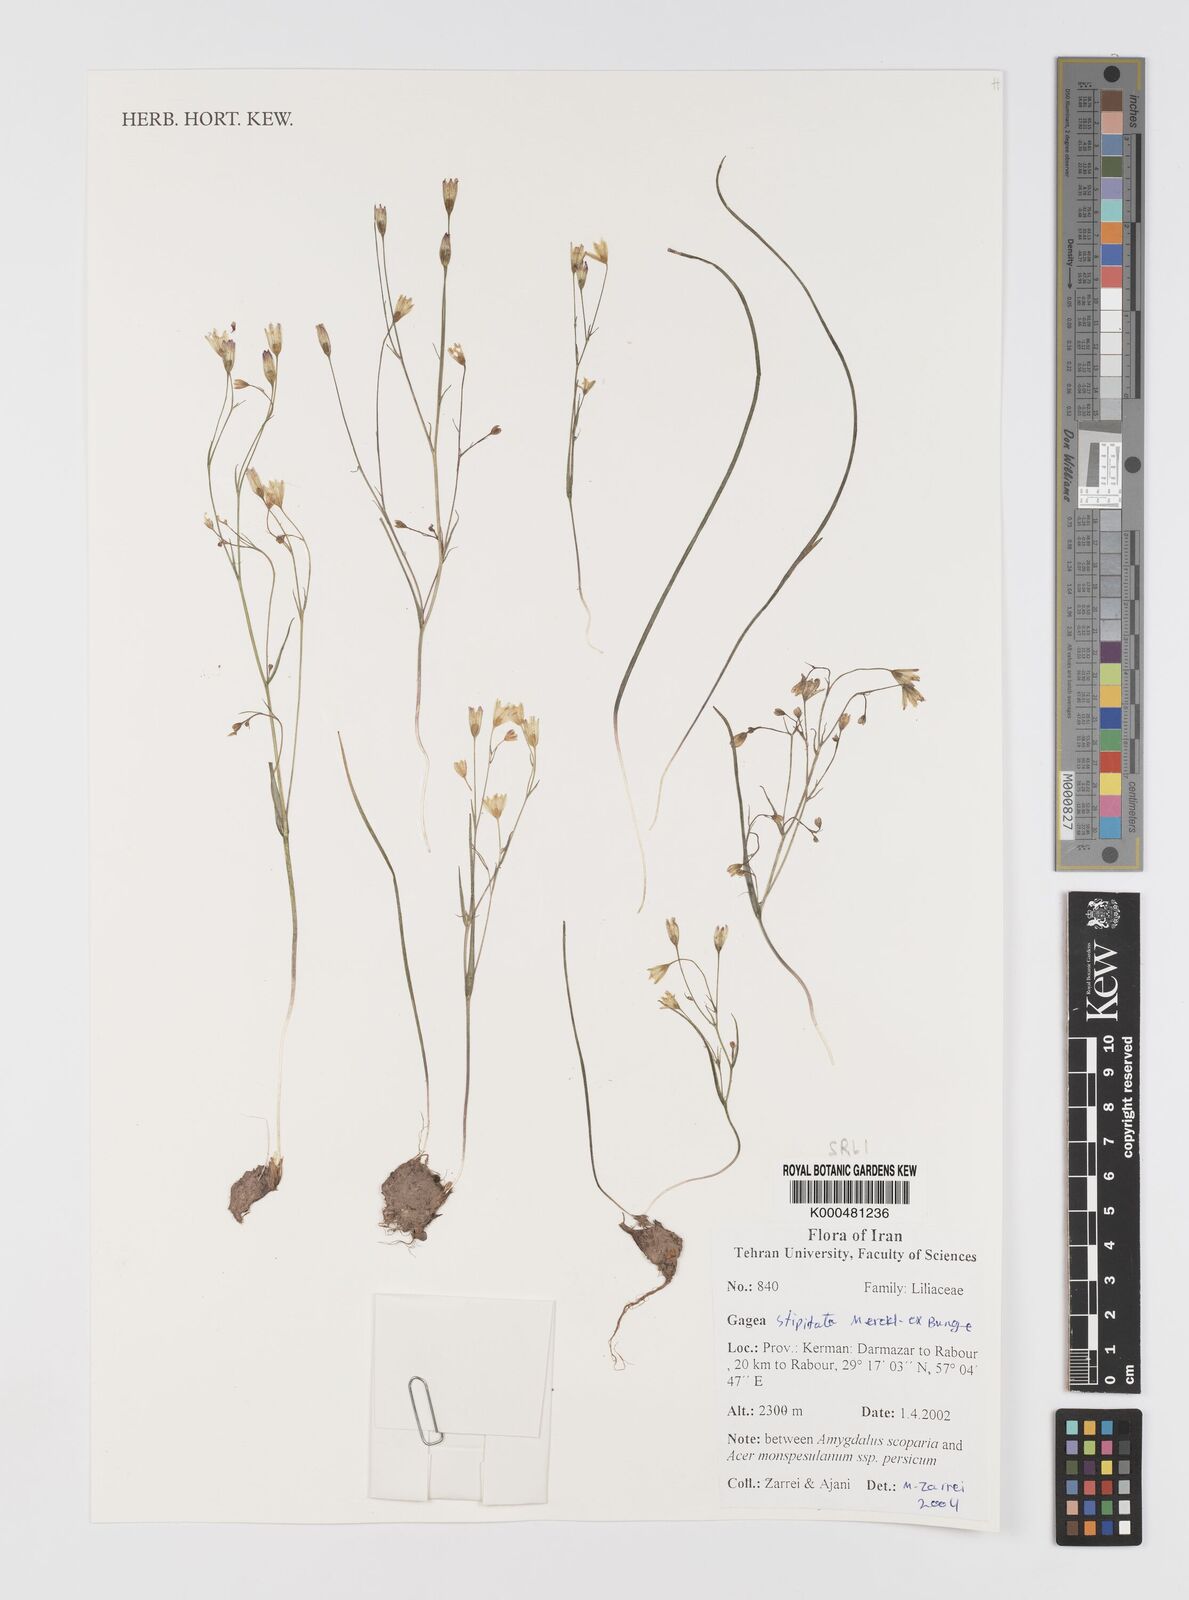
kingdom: Plantae
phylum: Tracheophyta
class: Liliopsida
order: Liliales
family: Liliaceae
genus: Gagea
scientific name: Gagea kunawurensis
